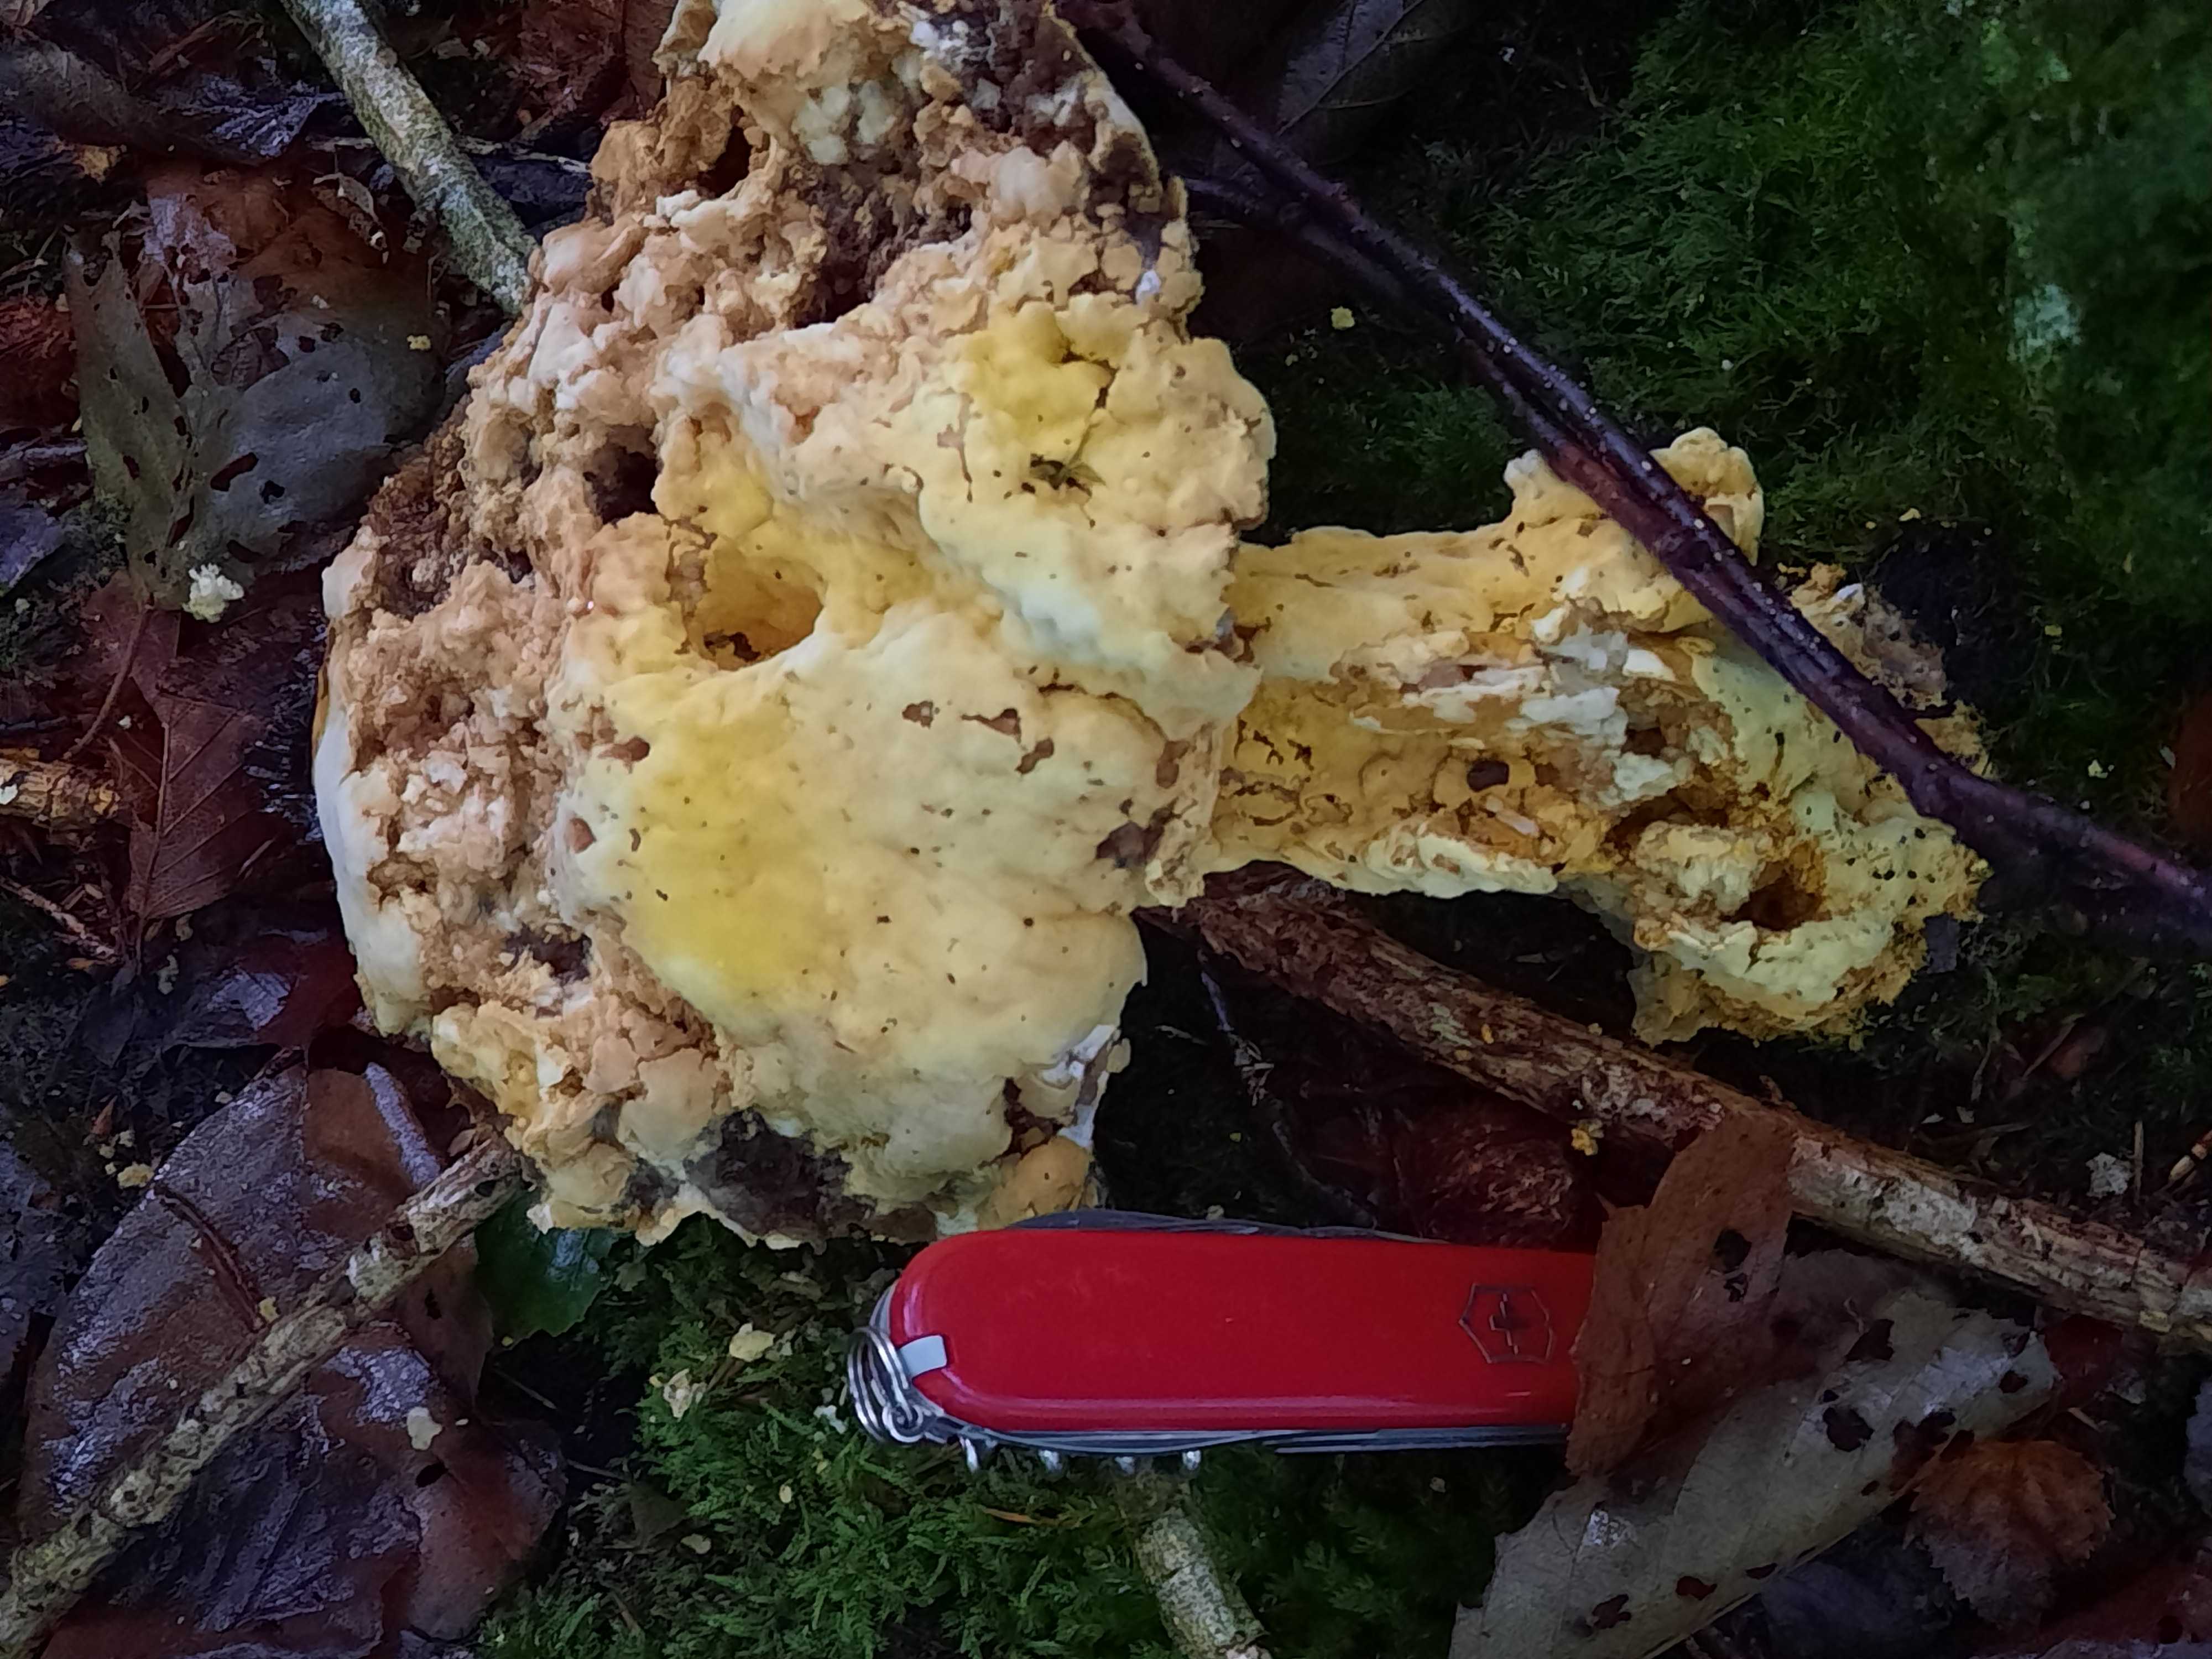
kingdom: Fungi
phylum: Ascomycota
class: Sordariomycetes
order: Hypocreales
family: Hypocreaceae
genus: Hypomyces
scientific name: Hypomyces chrysospermus
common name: gulskimmel-snylteskorpe
